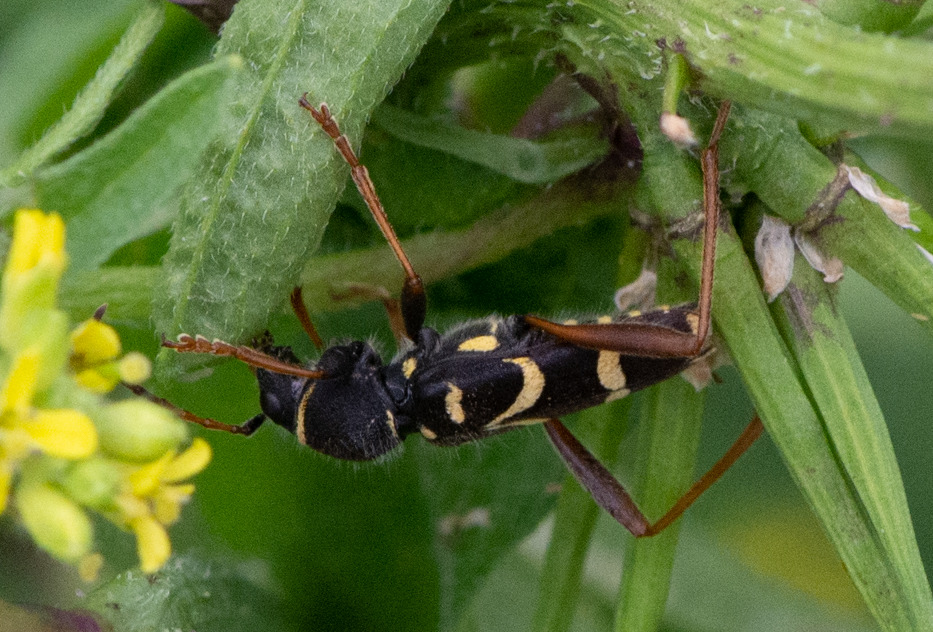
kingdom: Animalia
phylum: Arthropoda
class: Insecta
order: Coleoptera
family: Cerambycidae
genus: Clytus
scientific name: Clytus arietis
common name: Lille hvepsebuk
